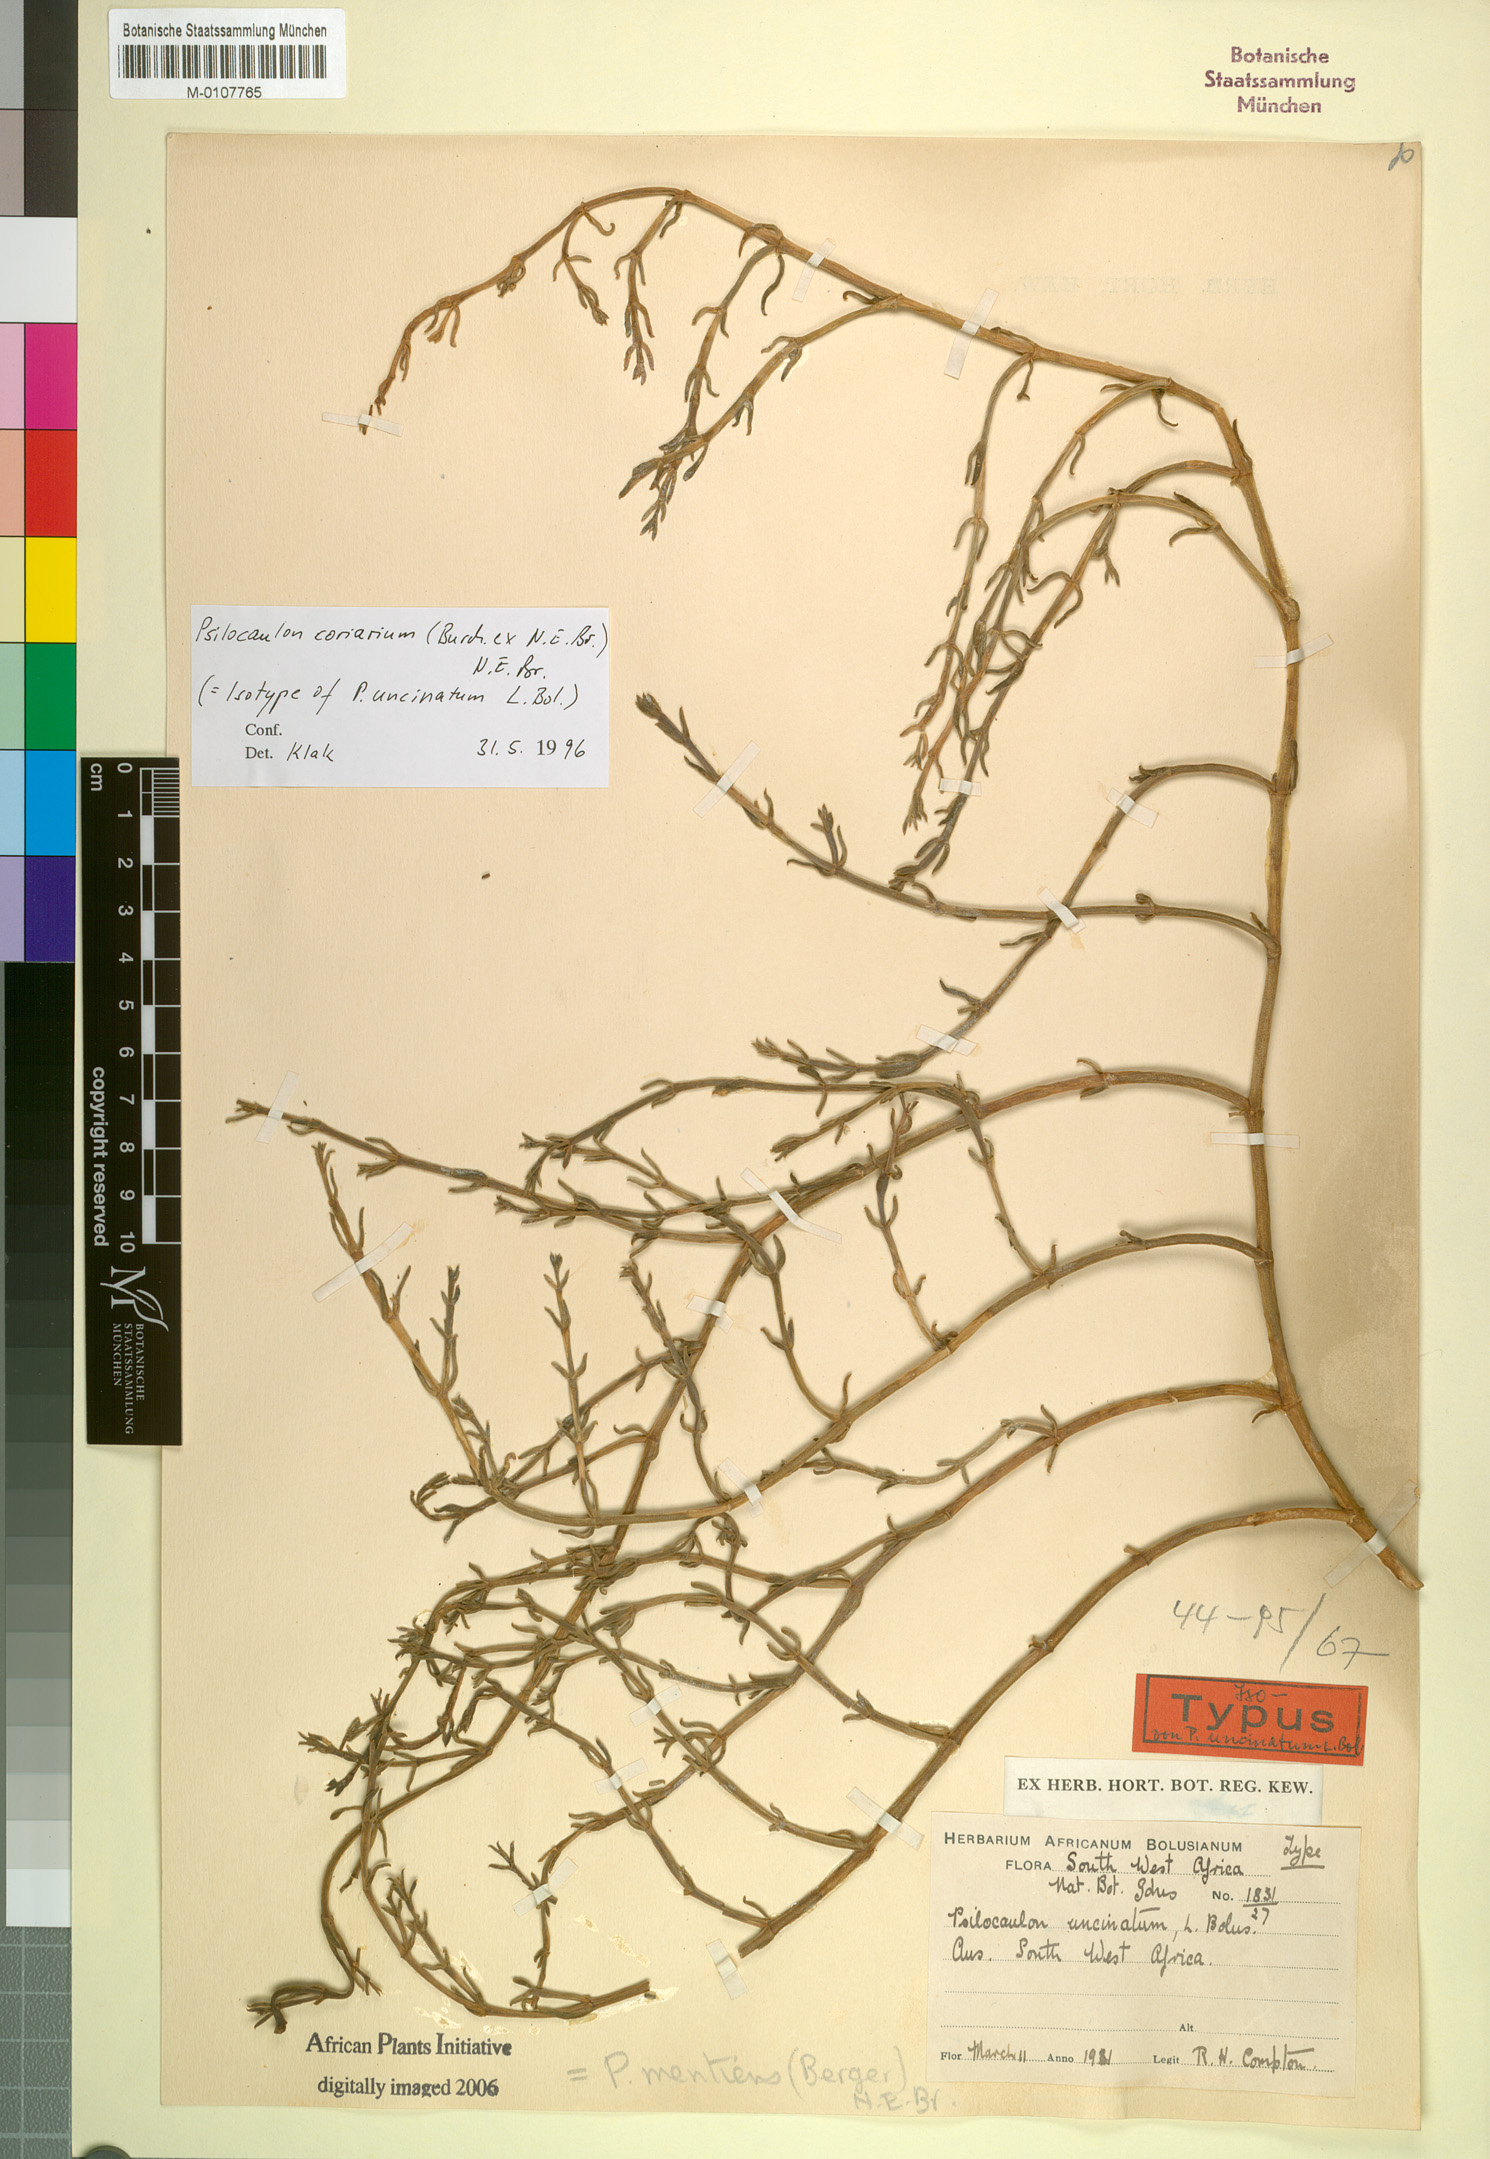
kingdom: Plantae
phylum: Tracheophyta
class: Magnoliopsida
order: Caryophyllales
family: Aizoaceae
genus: Mesembryanthemum
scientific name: Mesembryanthemum coriarium
